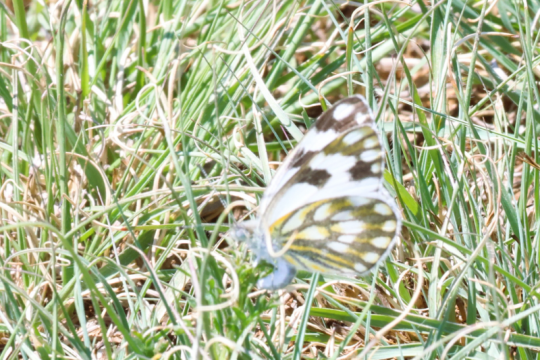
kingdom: Animalia
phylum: Arthropoda
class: Insecta
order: Lepidoptera
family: Pieridae
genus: Pontia
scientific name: Pontia helice
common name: Meadow White
